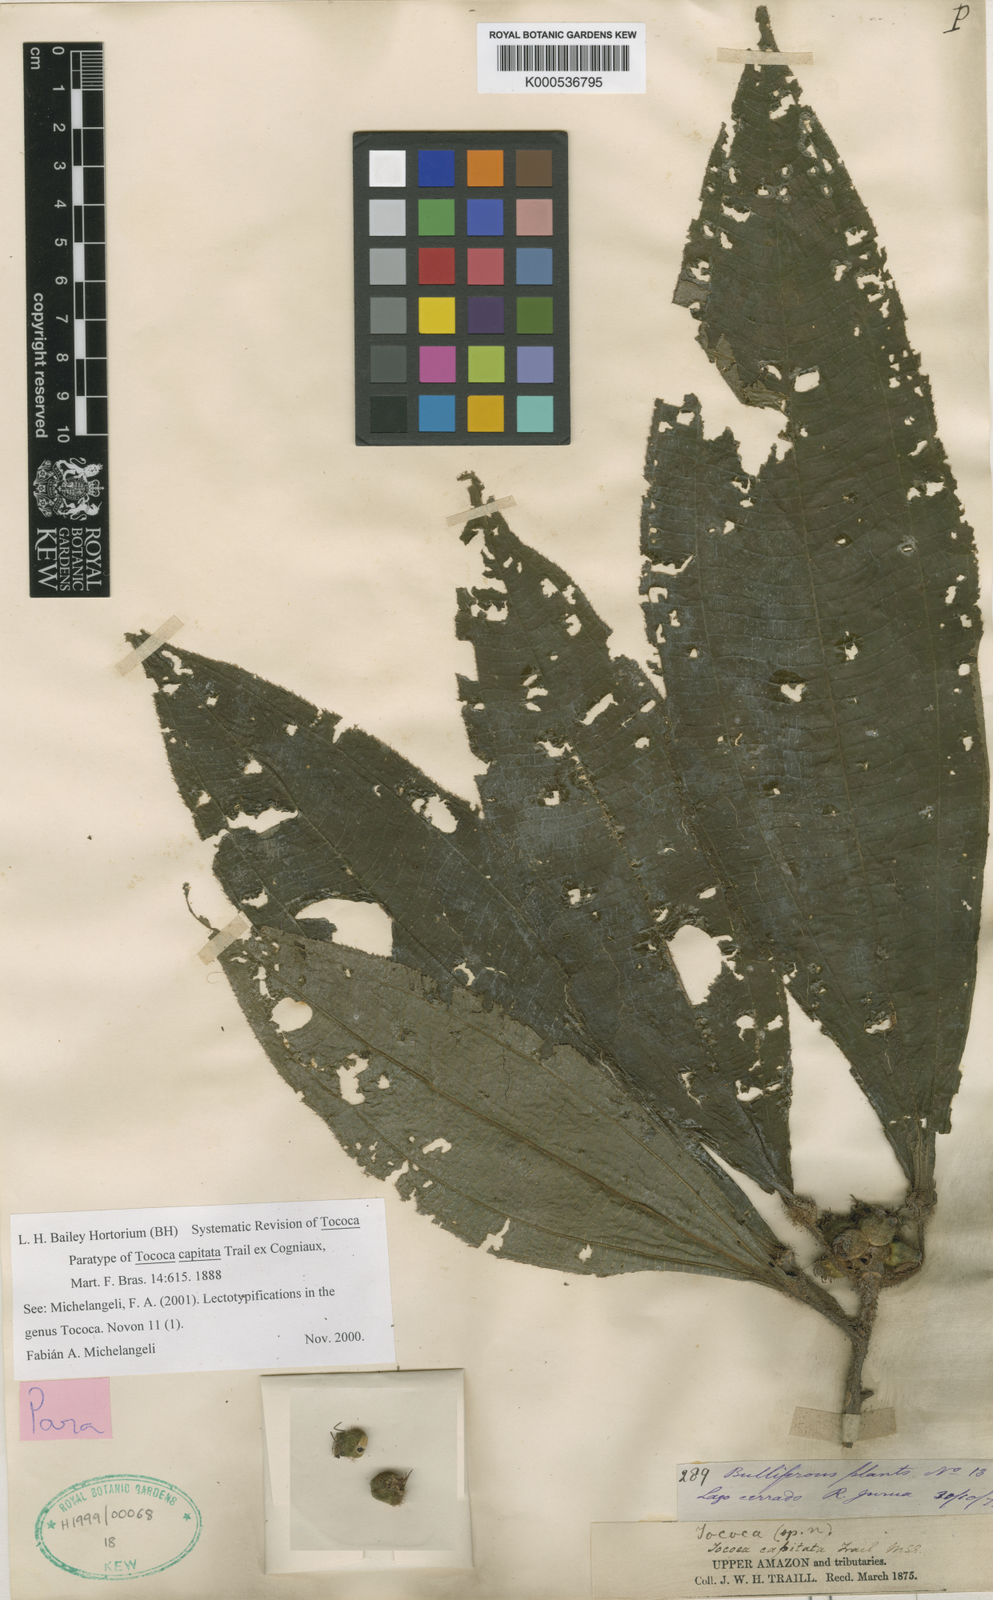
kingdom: Plantae
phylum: Tracheophyta
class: Magnoliopsida
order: Myrtales
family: Melastomataceae
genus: Miconia
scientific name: Miconia
